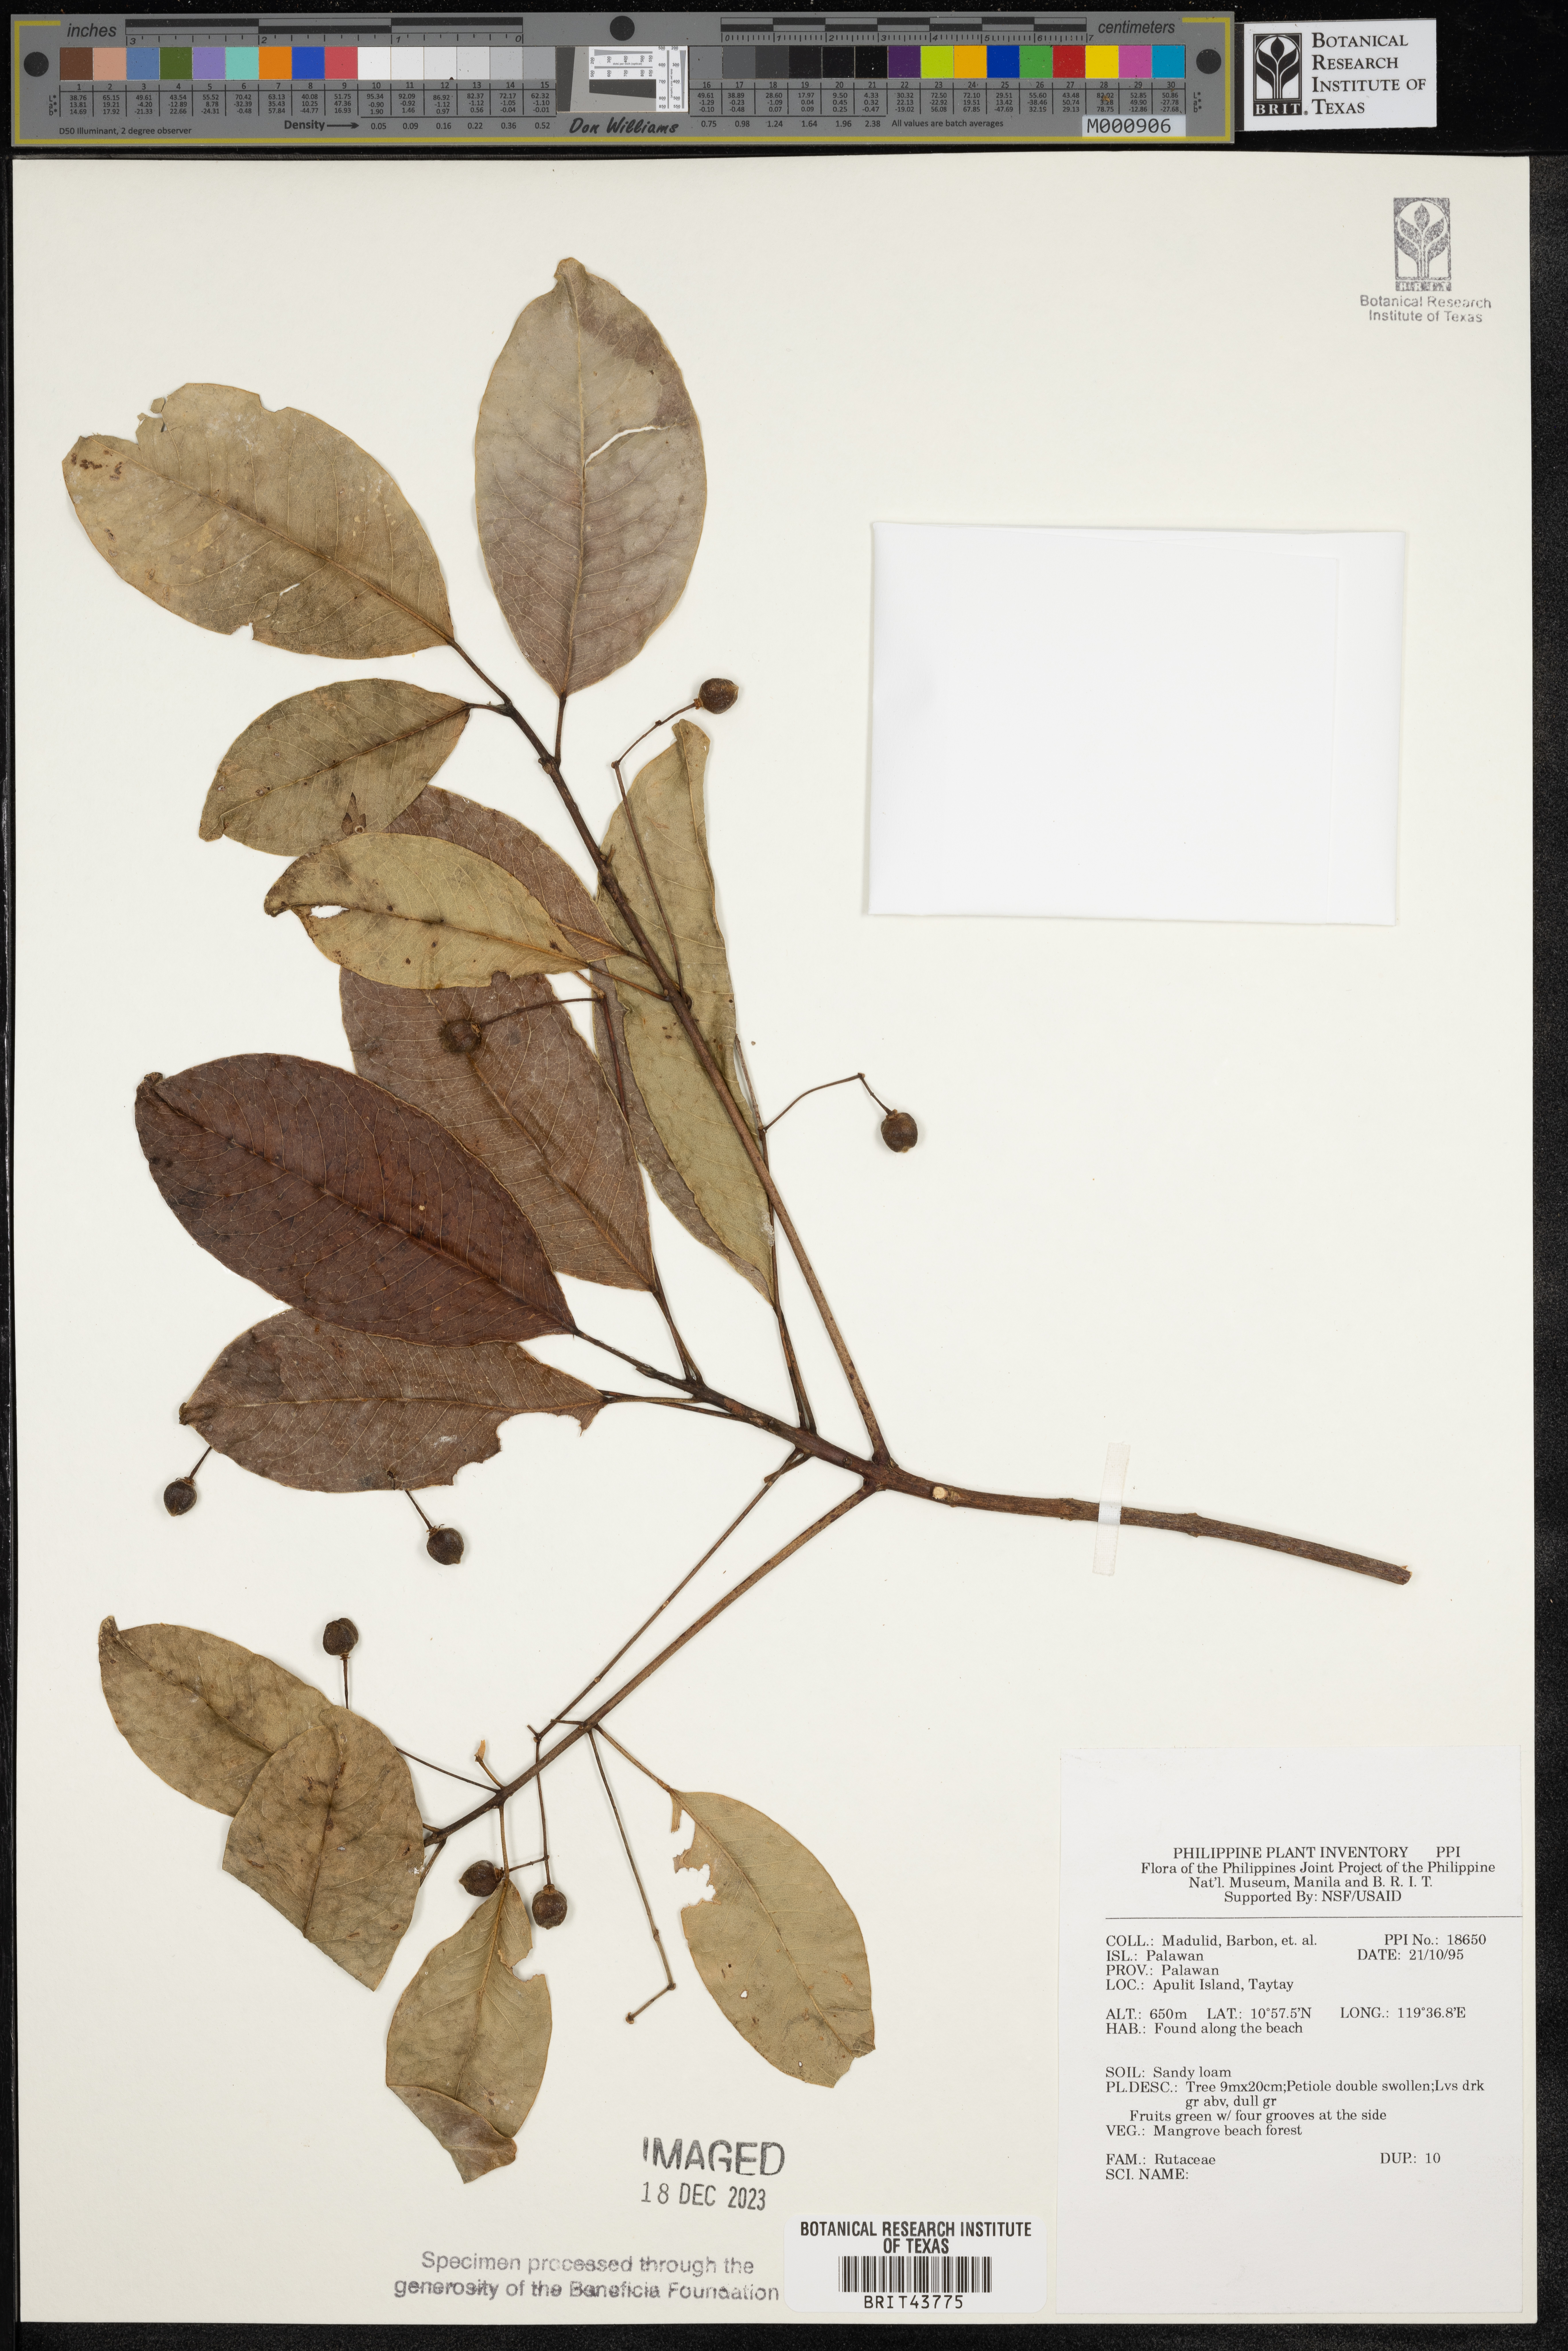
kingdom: Plantae
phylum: Tracheophyta
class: Magnoliopsida
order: Sapindales
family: Rutaceae
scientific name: Rutaceae
